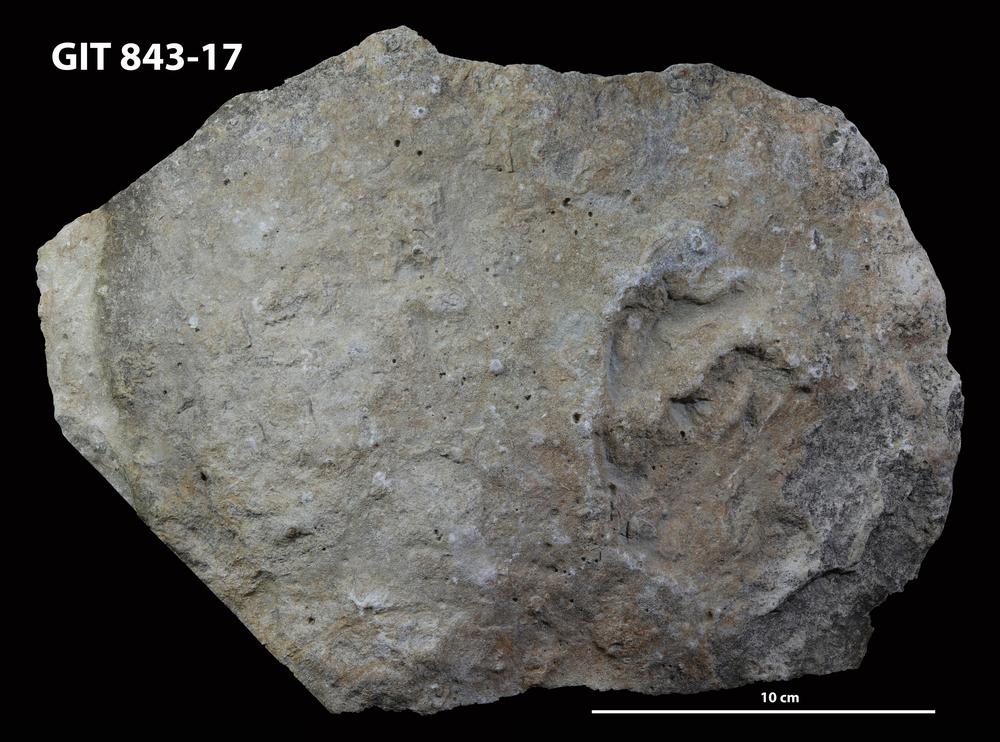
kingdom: Animalia
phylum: Bryozoa
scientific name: Bryozoa
